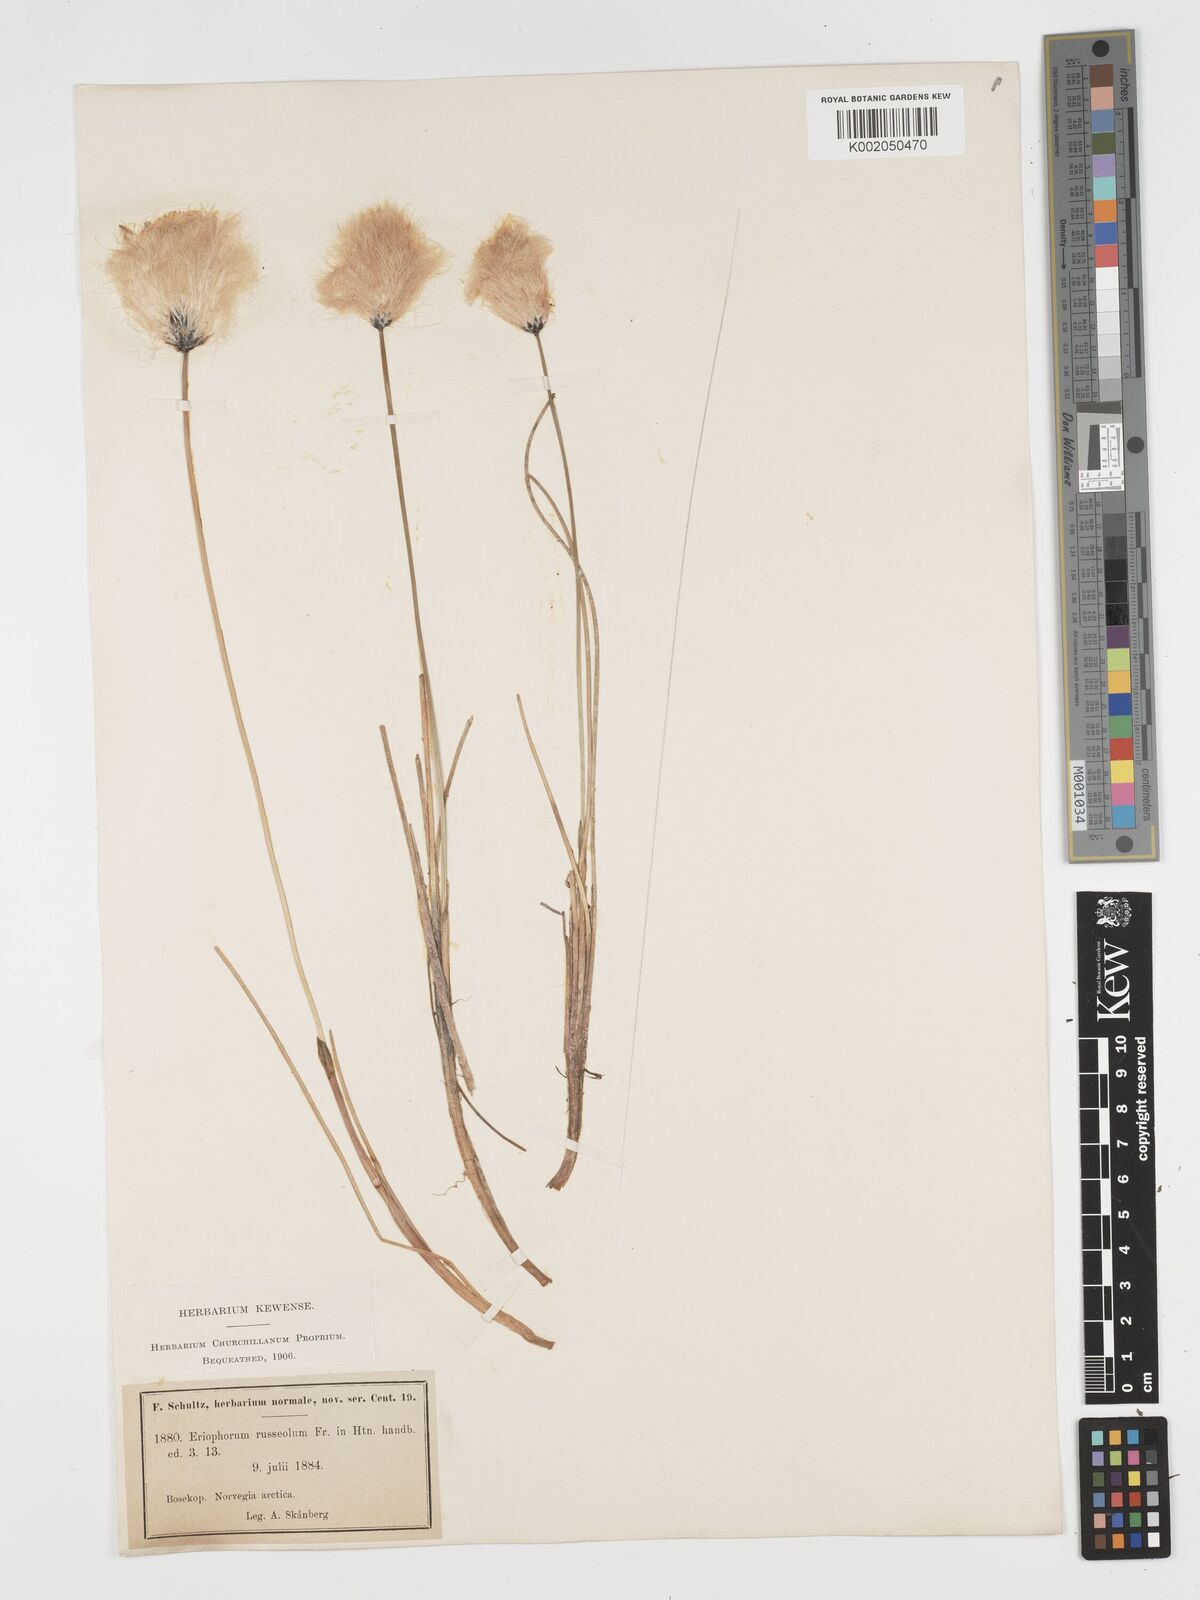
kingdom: Plantae
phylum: Tracheophyta
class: Liliopsida
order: Poales
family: Cyperaceae
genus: Eriophorum
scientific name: Eriophorum scheuchzeri
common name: Scheuchzer's cottongrass
